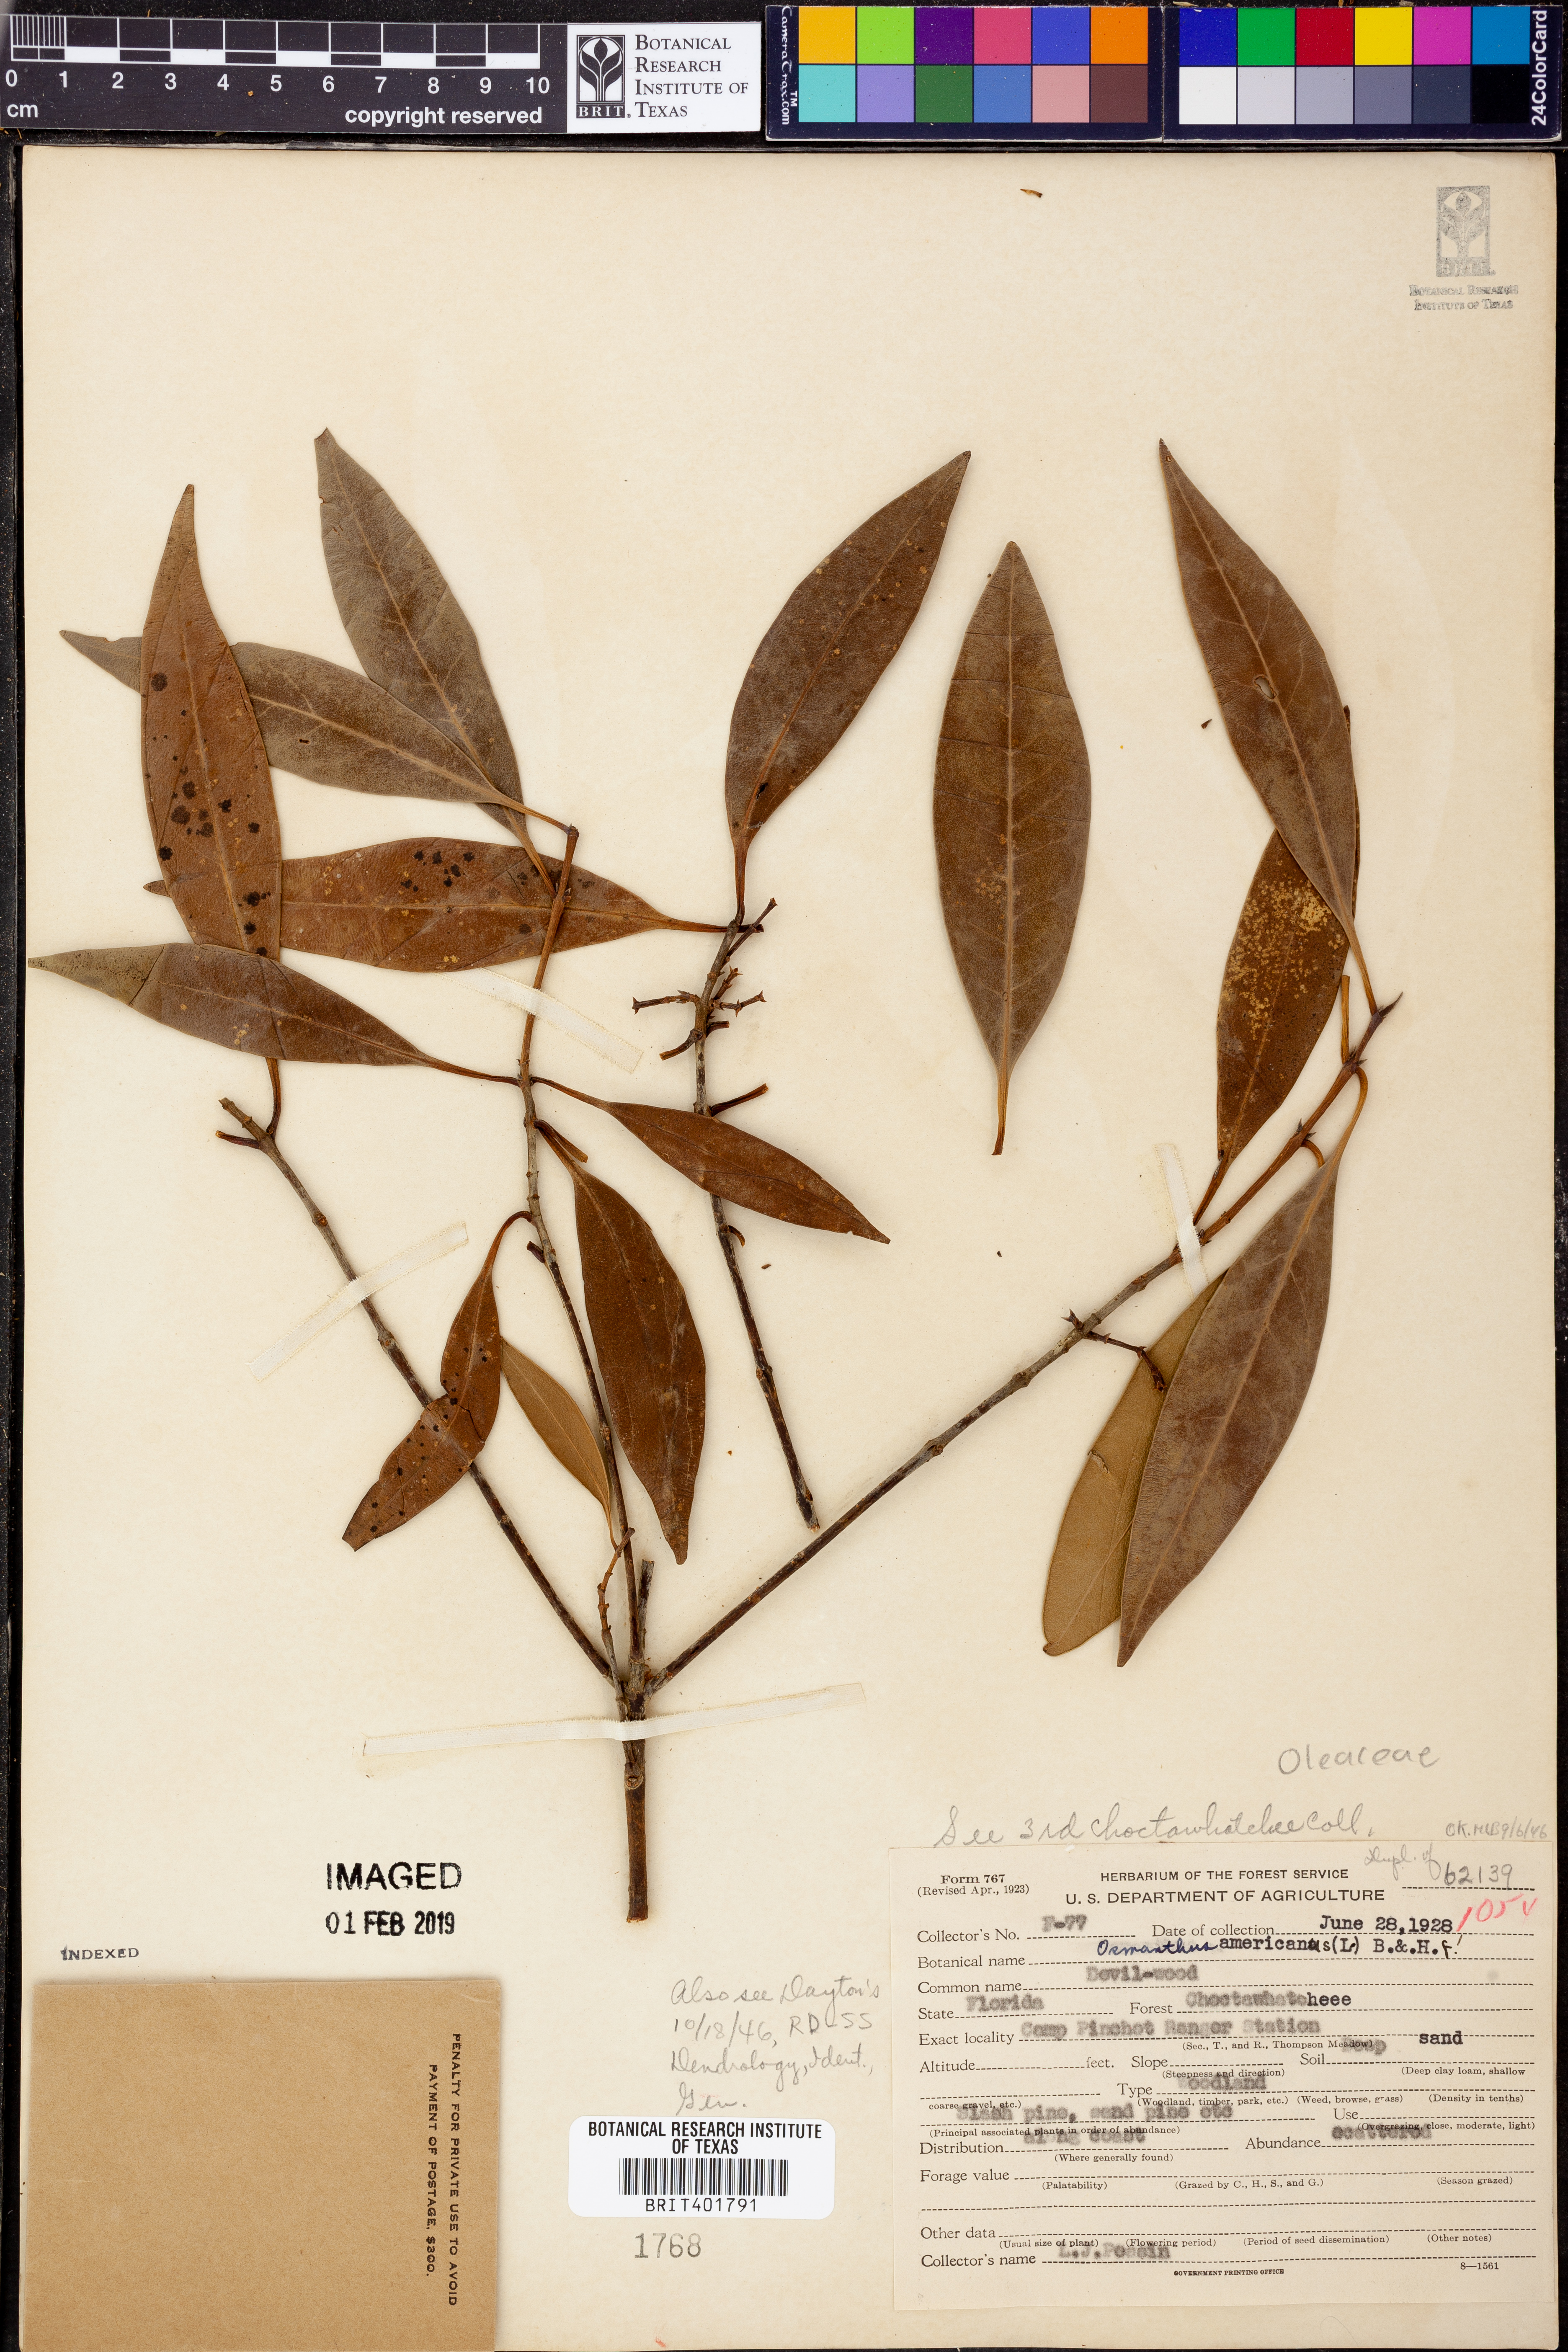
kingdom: Plantae
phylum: Tracheophyta
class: Magnoliopsida
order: Lamiales
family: Oleaceae
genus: Osmanthus
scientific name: Osmanthus americanus
